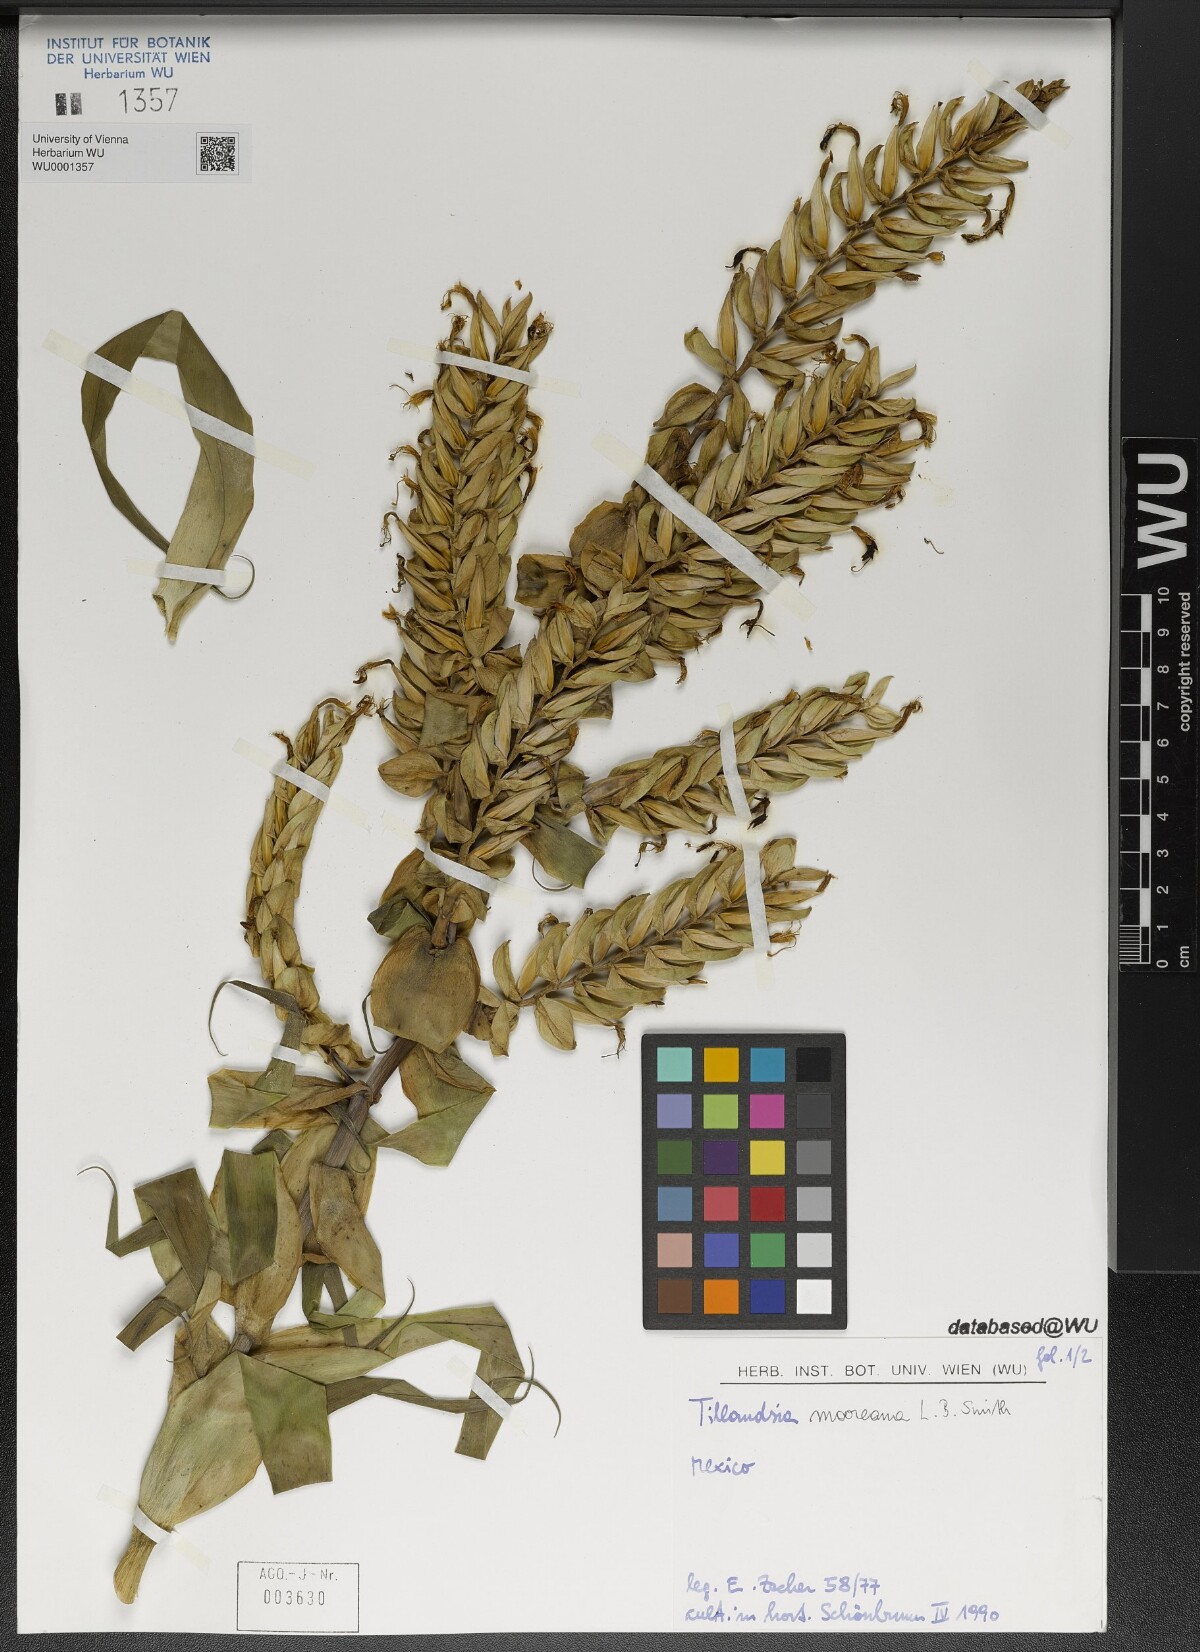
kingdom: Plantae
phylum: Tracheophyta
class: Liliopsida
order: Poales
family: Bromeliaceae
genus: Tillandsia
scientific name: Tillandsia mooreana
